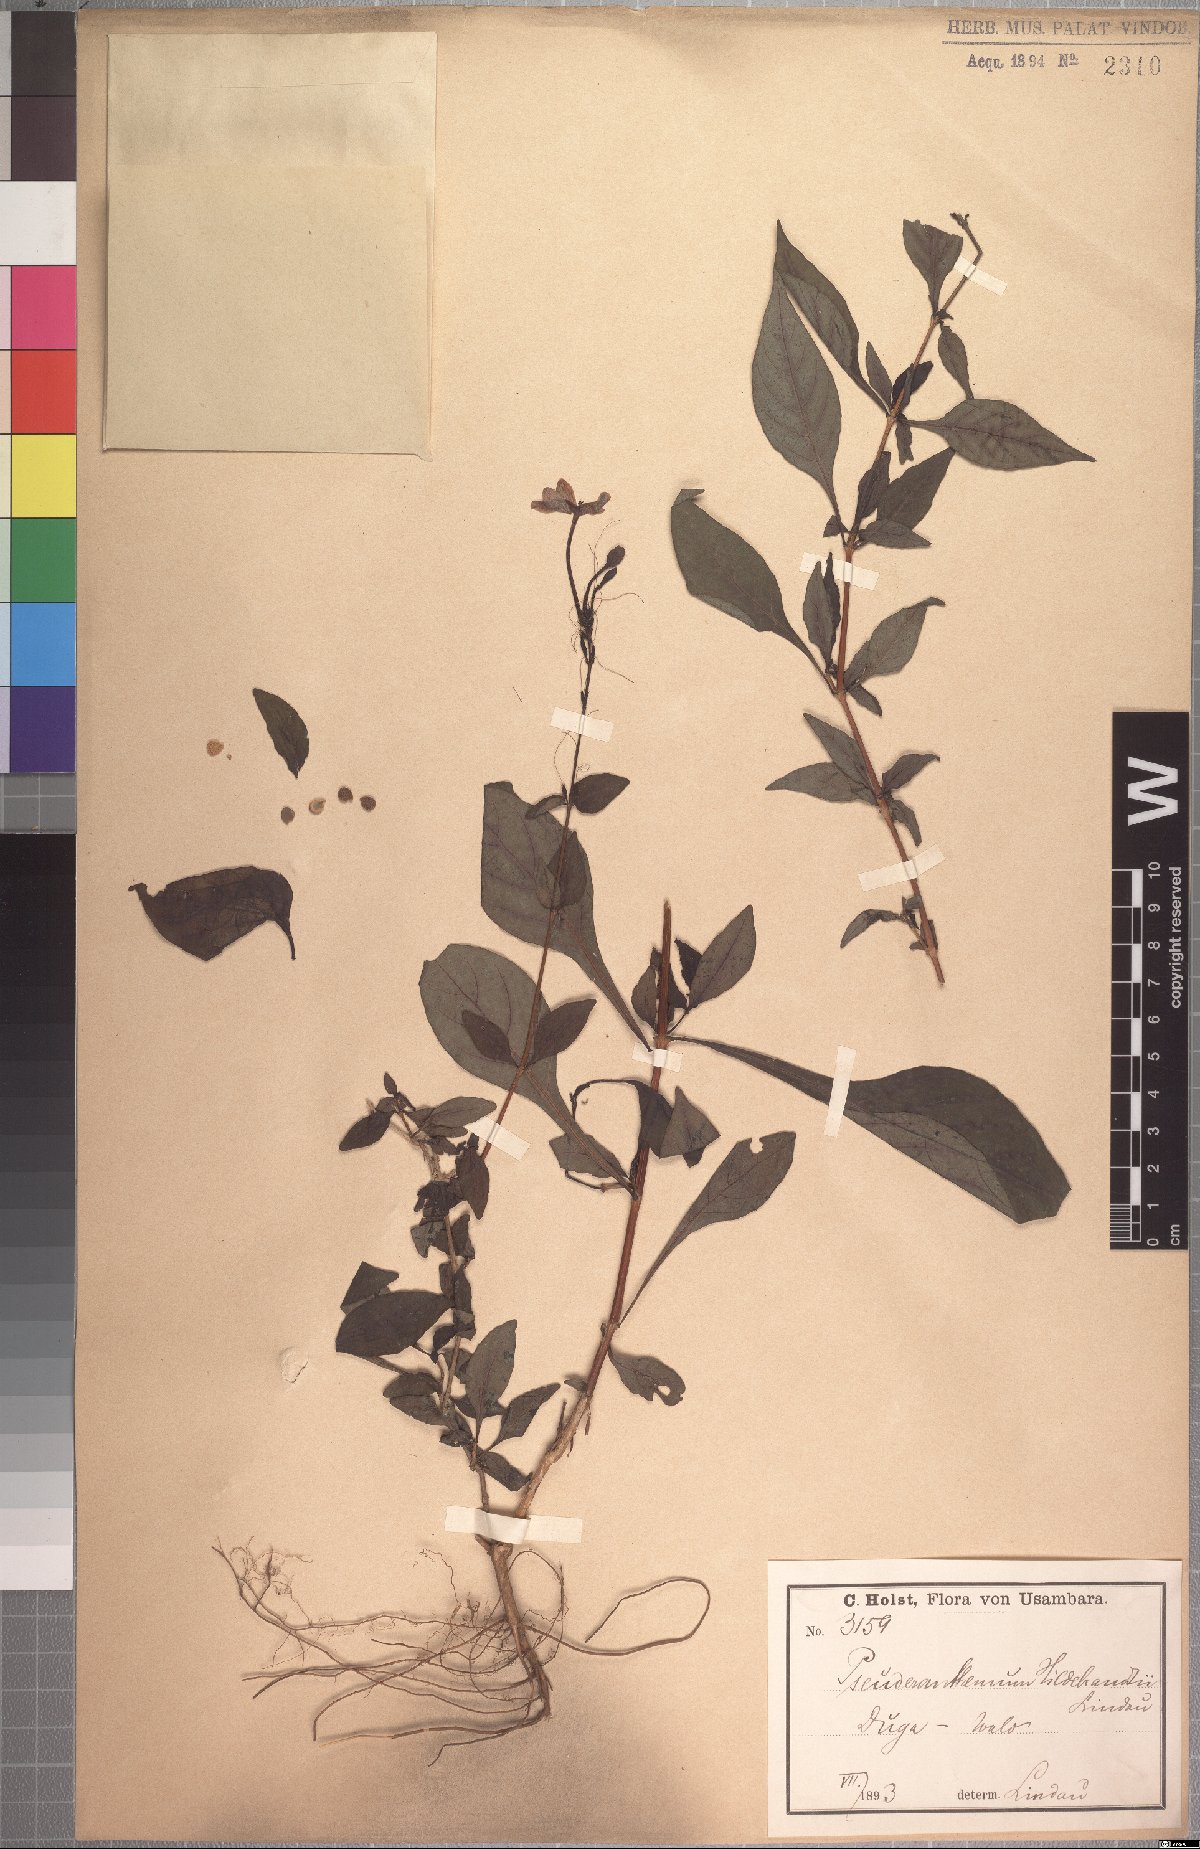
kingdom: Plantae
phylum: Tracheophyta
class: Magnoliopsida
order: Lamiales
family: Acanthaceae
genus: Pseuderanthemum
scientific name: Pseuderanthemum hildebrandtii
